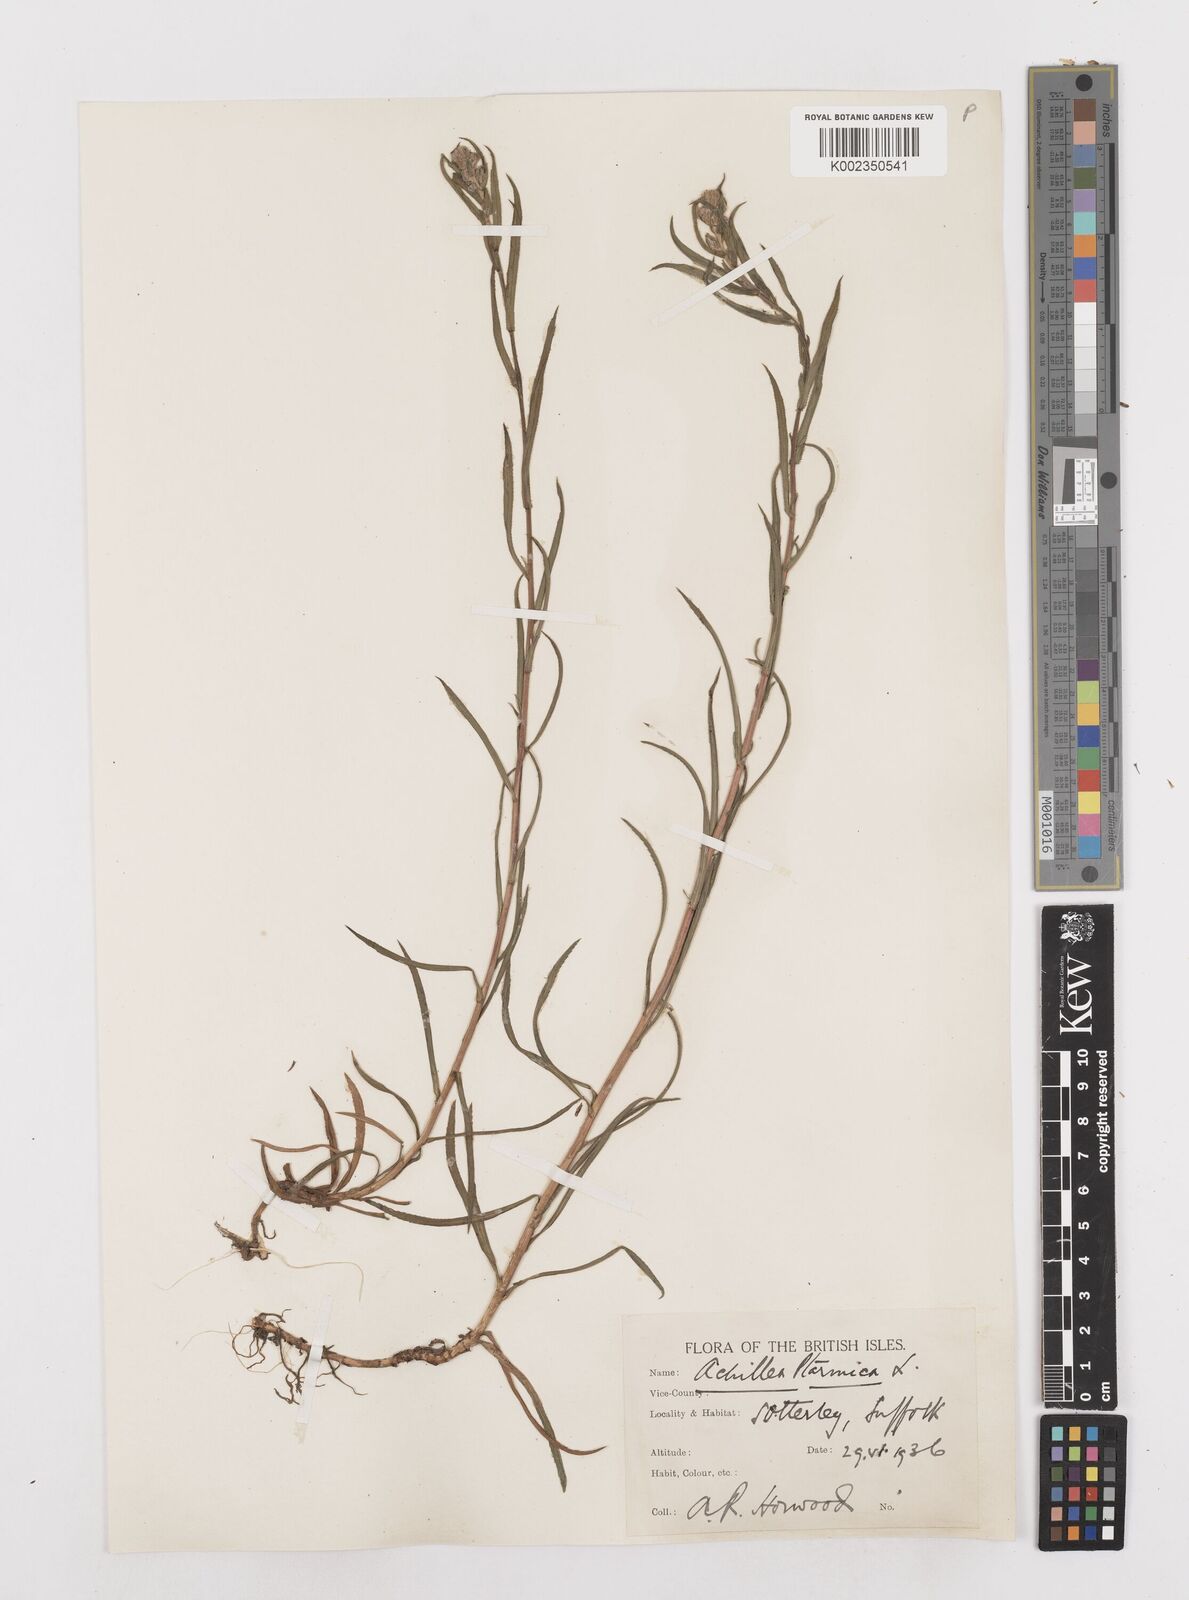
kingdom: Plantae
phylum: Tracheophyta
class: Magnoliopsida
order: Asterales
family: Asteraceae
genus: Achillea
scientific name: Achillea ptarmica
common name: Sneezeweed
